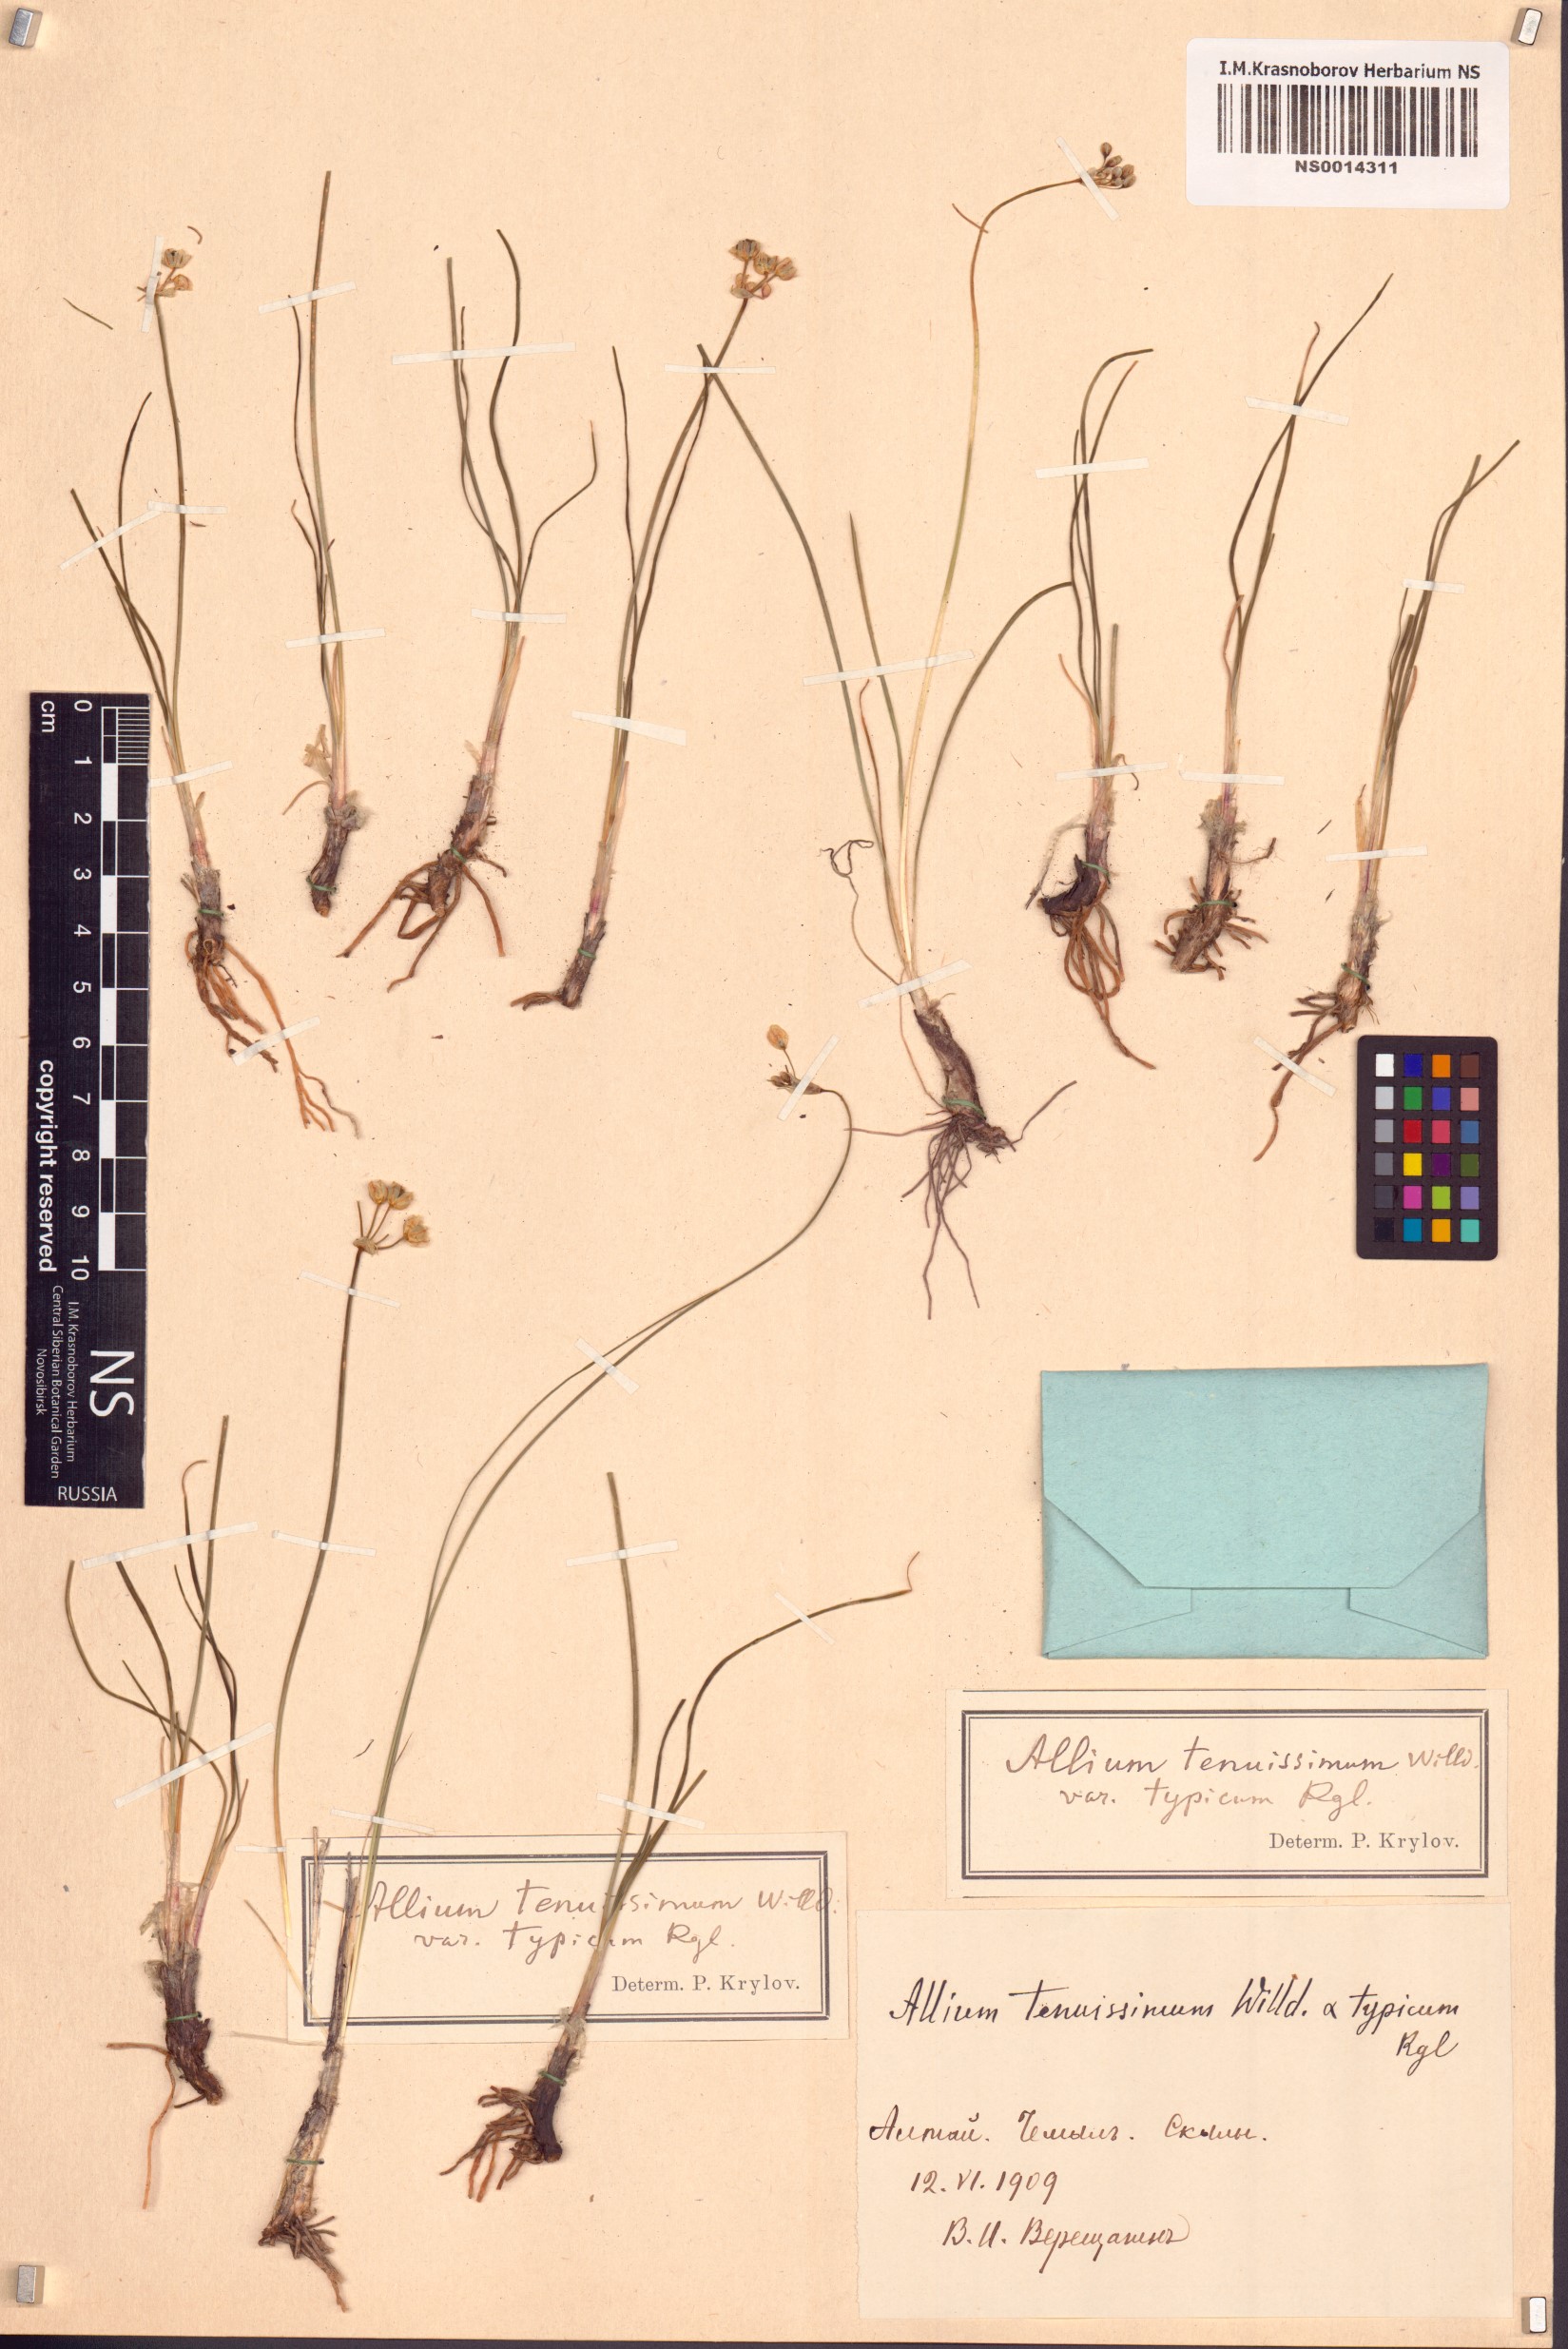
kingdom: Plantae
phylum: Tracheophyta
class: Liliopsida
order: Asparagales
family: Amaryllidaceae
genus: Allium
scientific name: Allium tenuissimum
